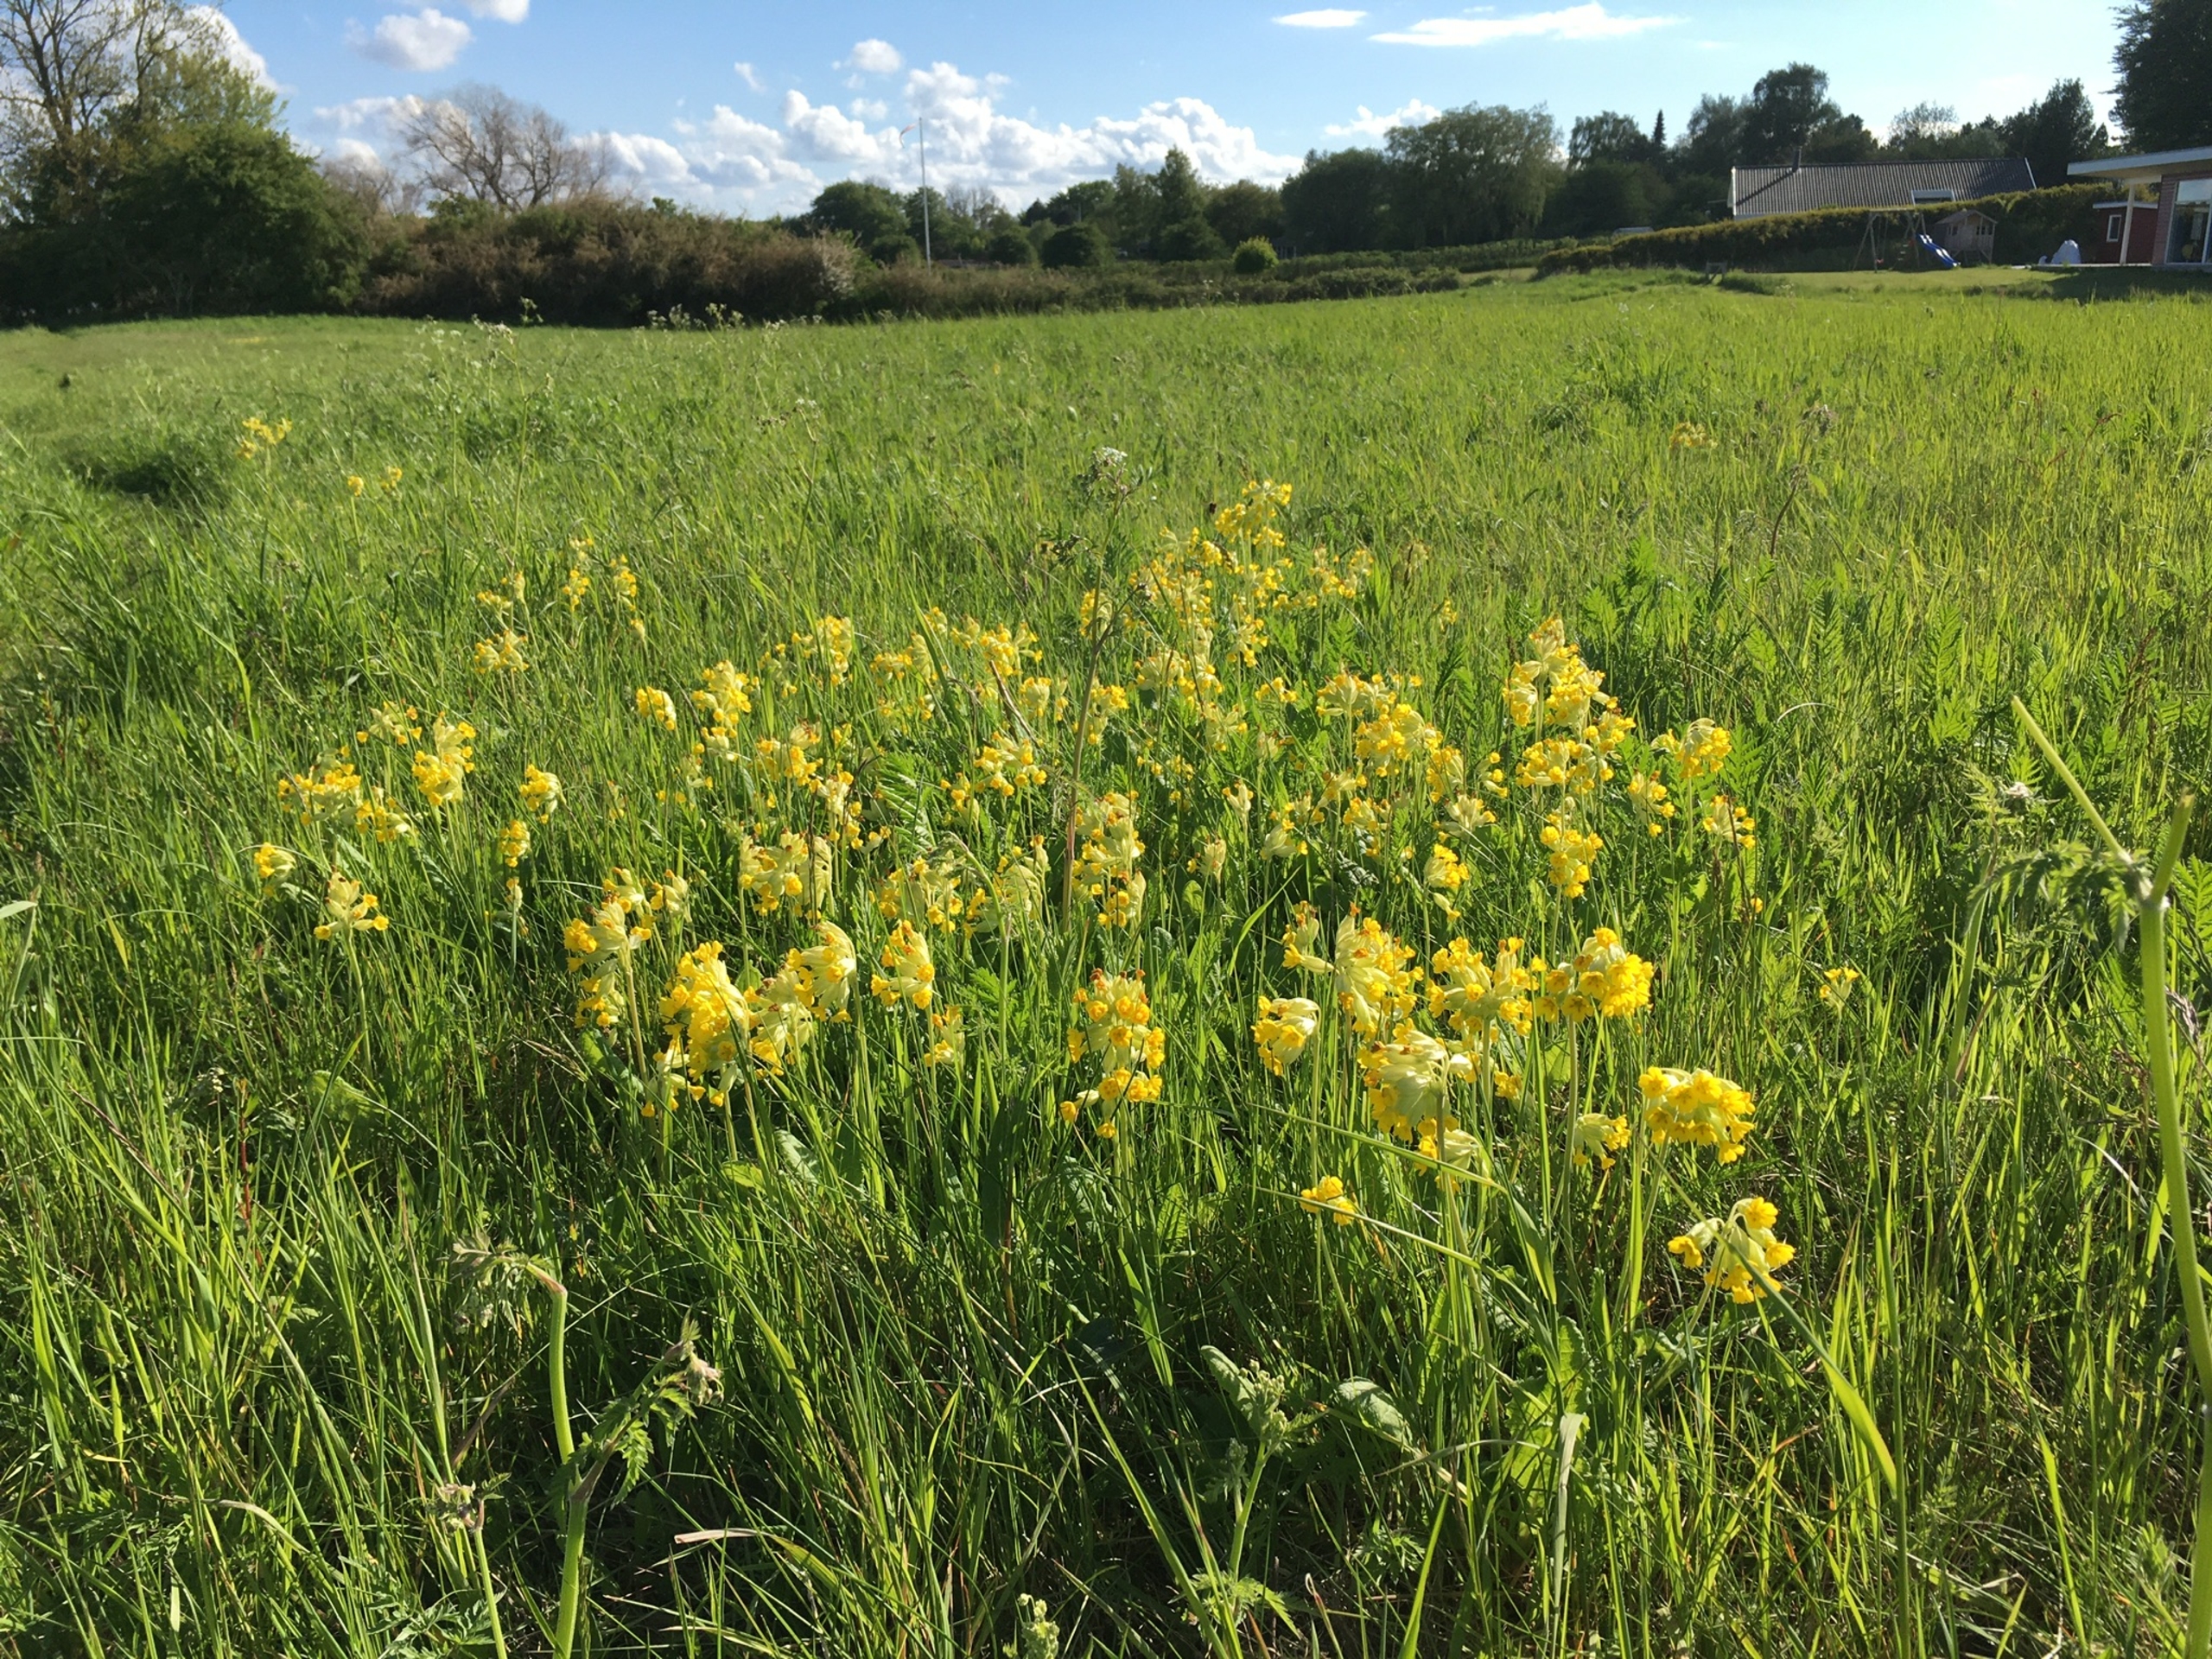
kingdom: Plantae
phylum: Tracheophyta
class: Magnoliopsida
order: Ericales
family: Primulaceae
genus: Primula
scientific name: Primula veris
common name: Hulkravet kodriver
